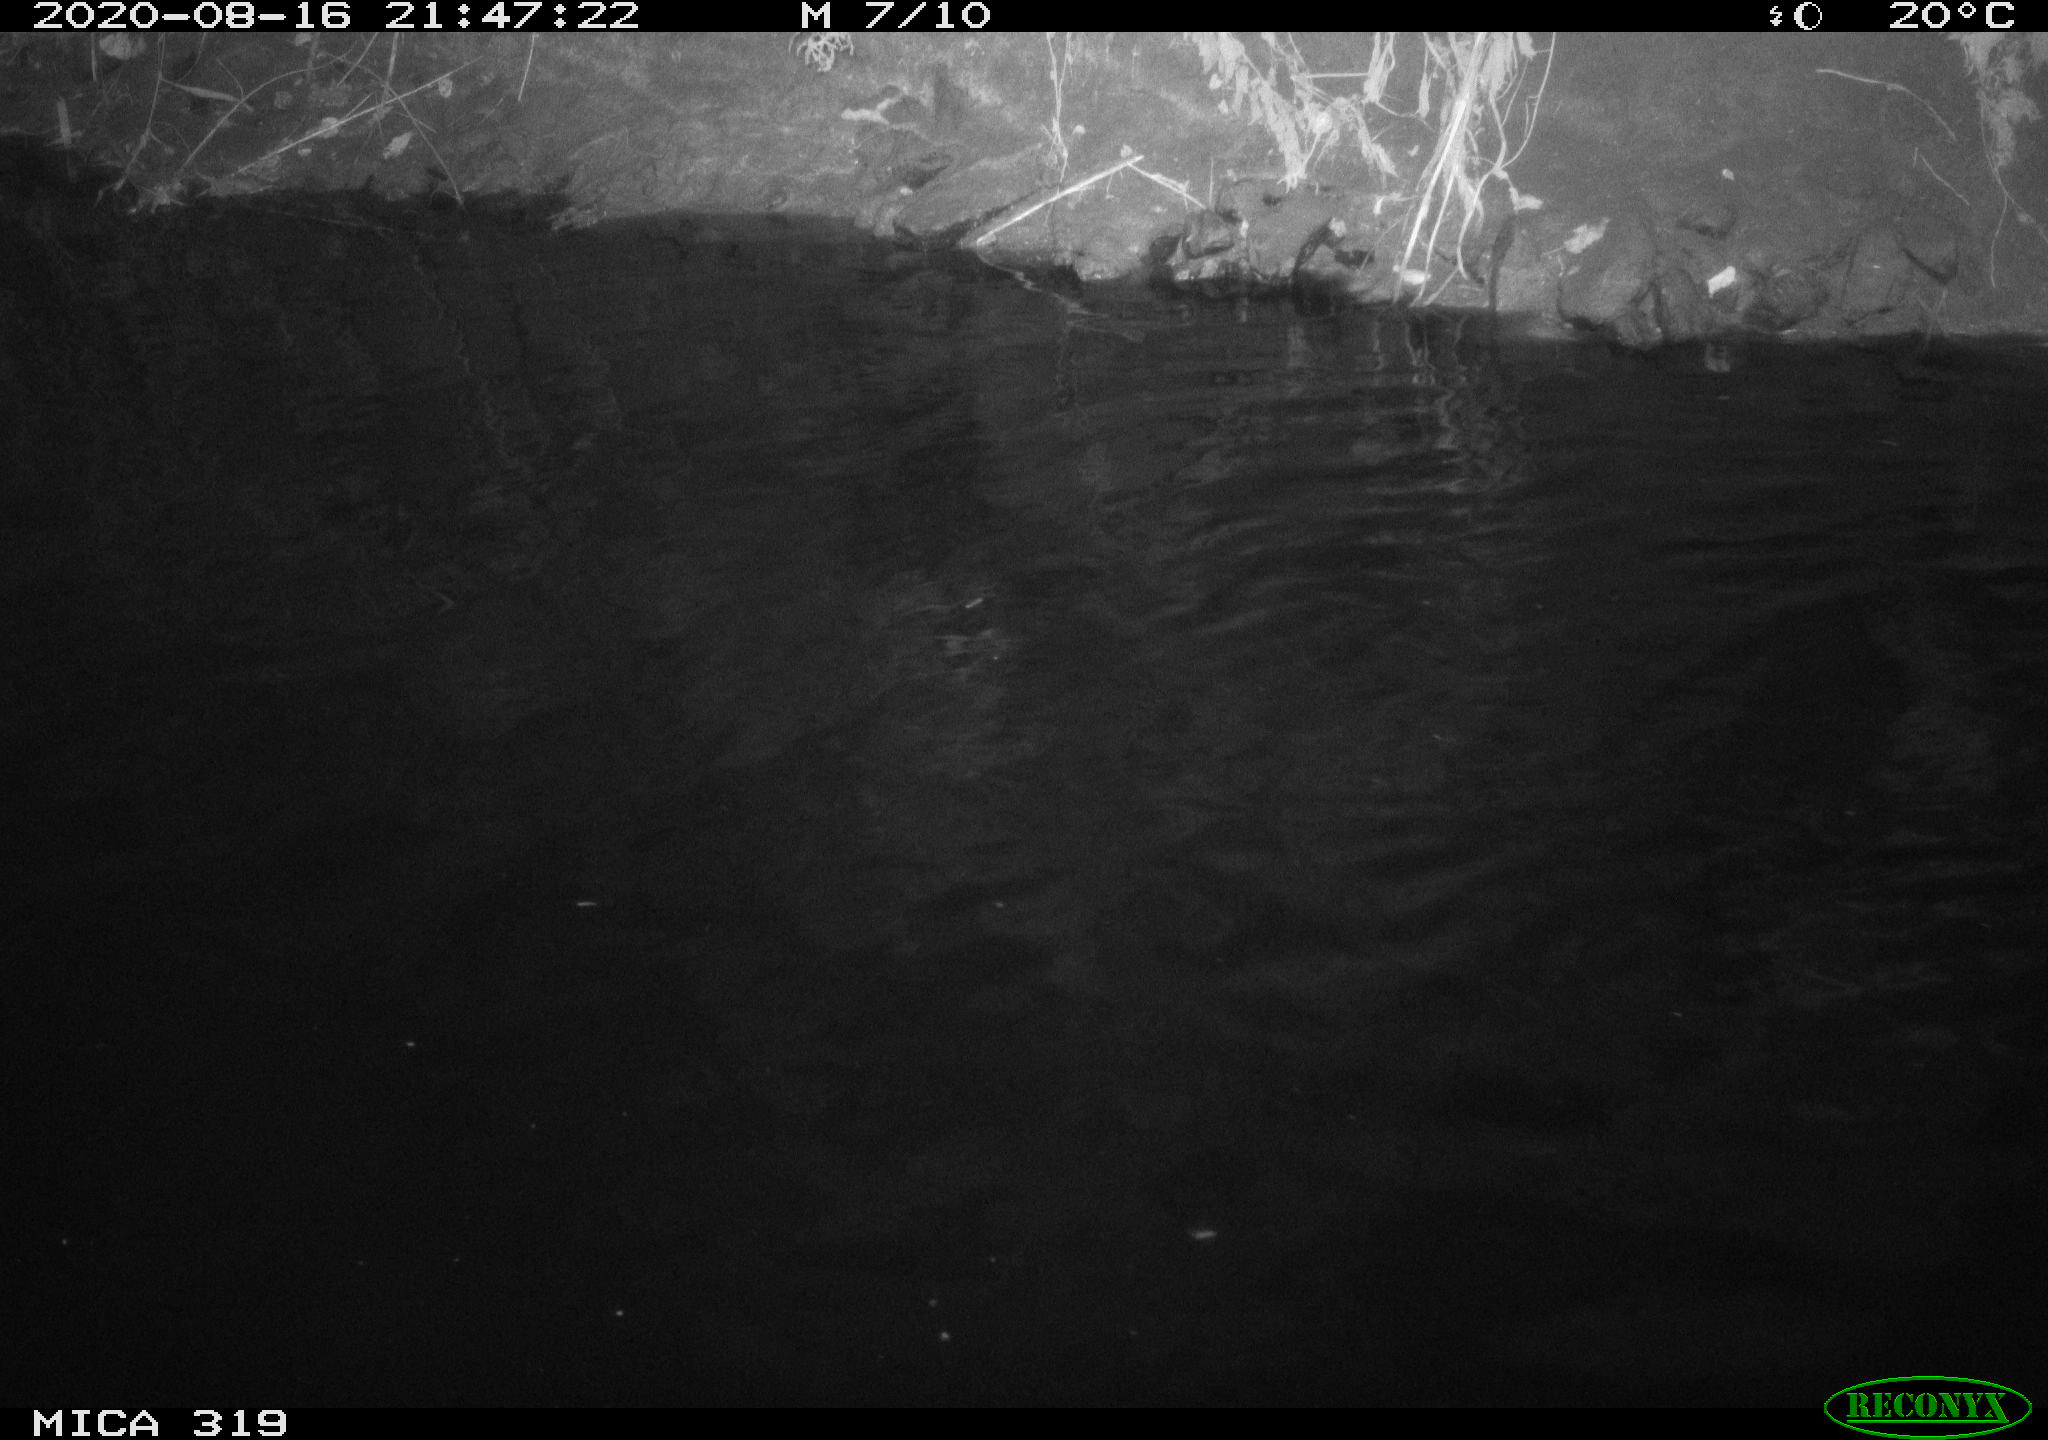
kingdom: Animalia
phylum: Chordata
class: Aves
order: Anseriformes
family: Anatidae
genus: Anas
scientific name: Anas platyrhynchos
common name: Mallard
